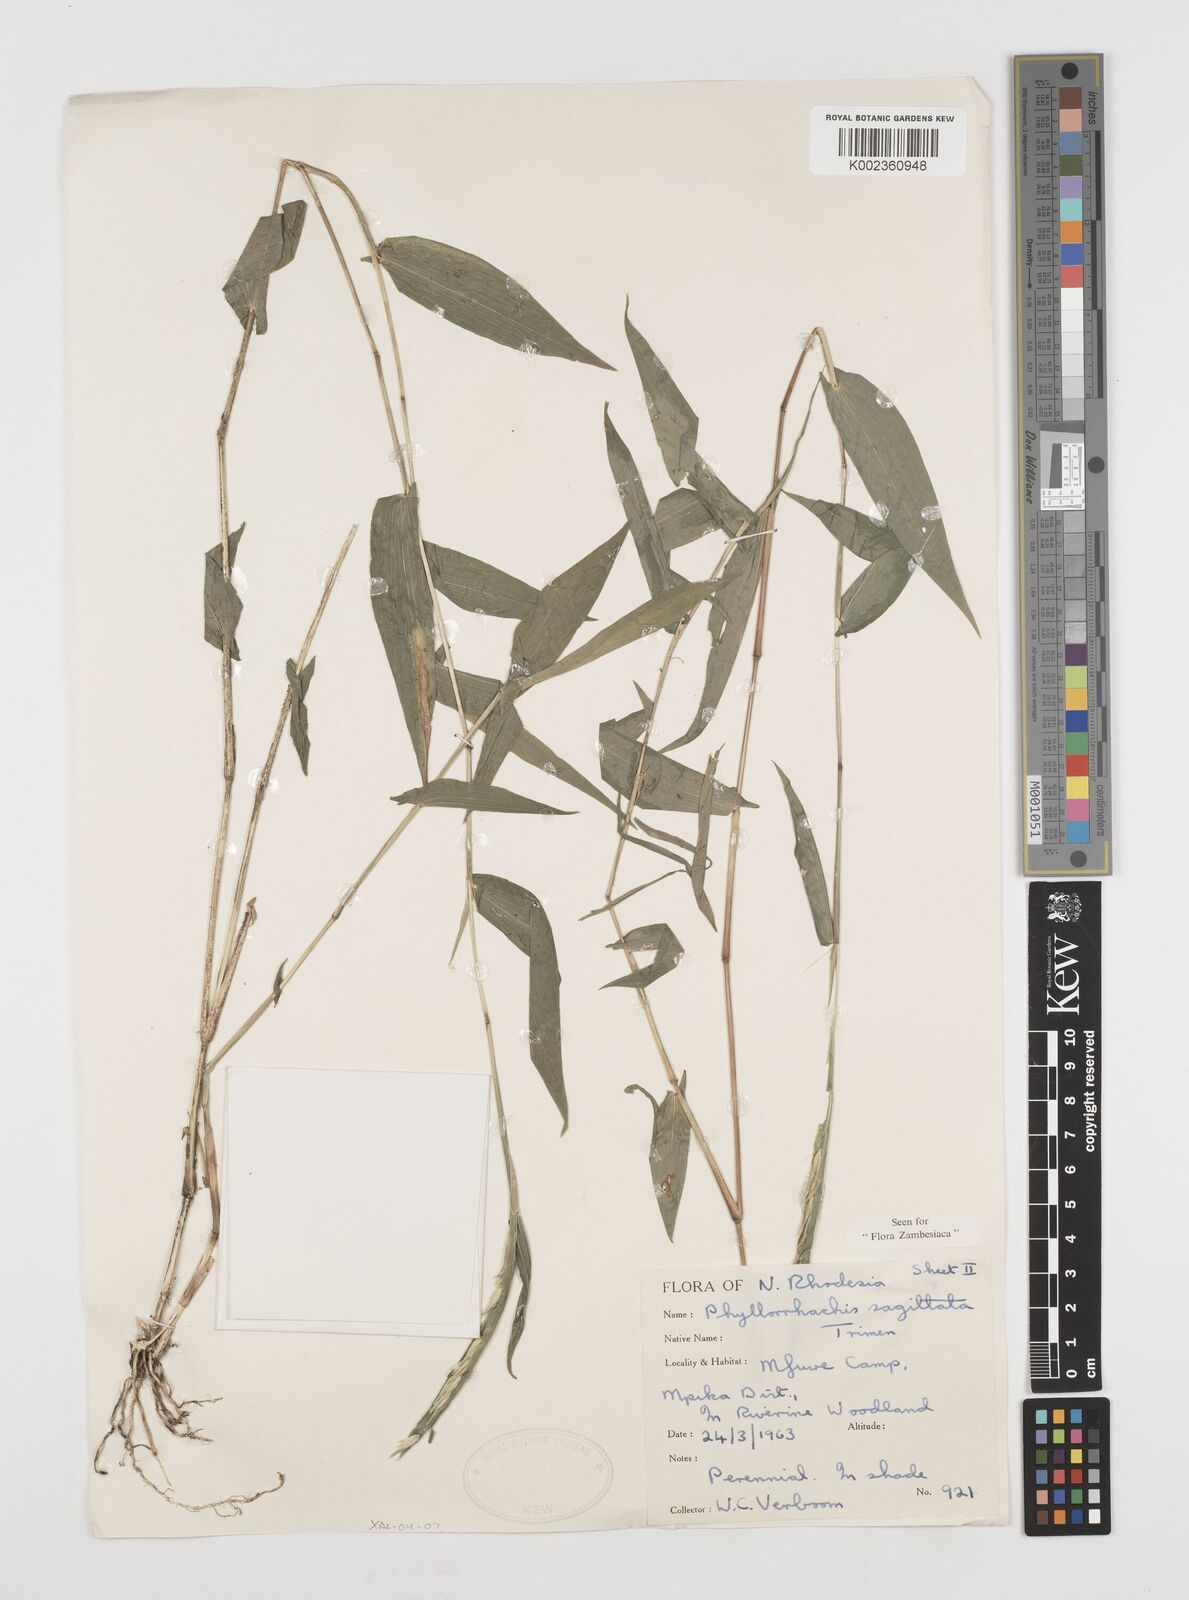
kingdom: Plantae
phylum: Tracheophyta
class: Liliopsida
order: Poales
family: Poaceae
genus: Phyllorachis
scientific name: Phyllorachis sagittata
